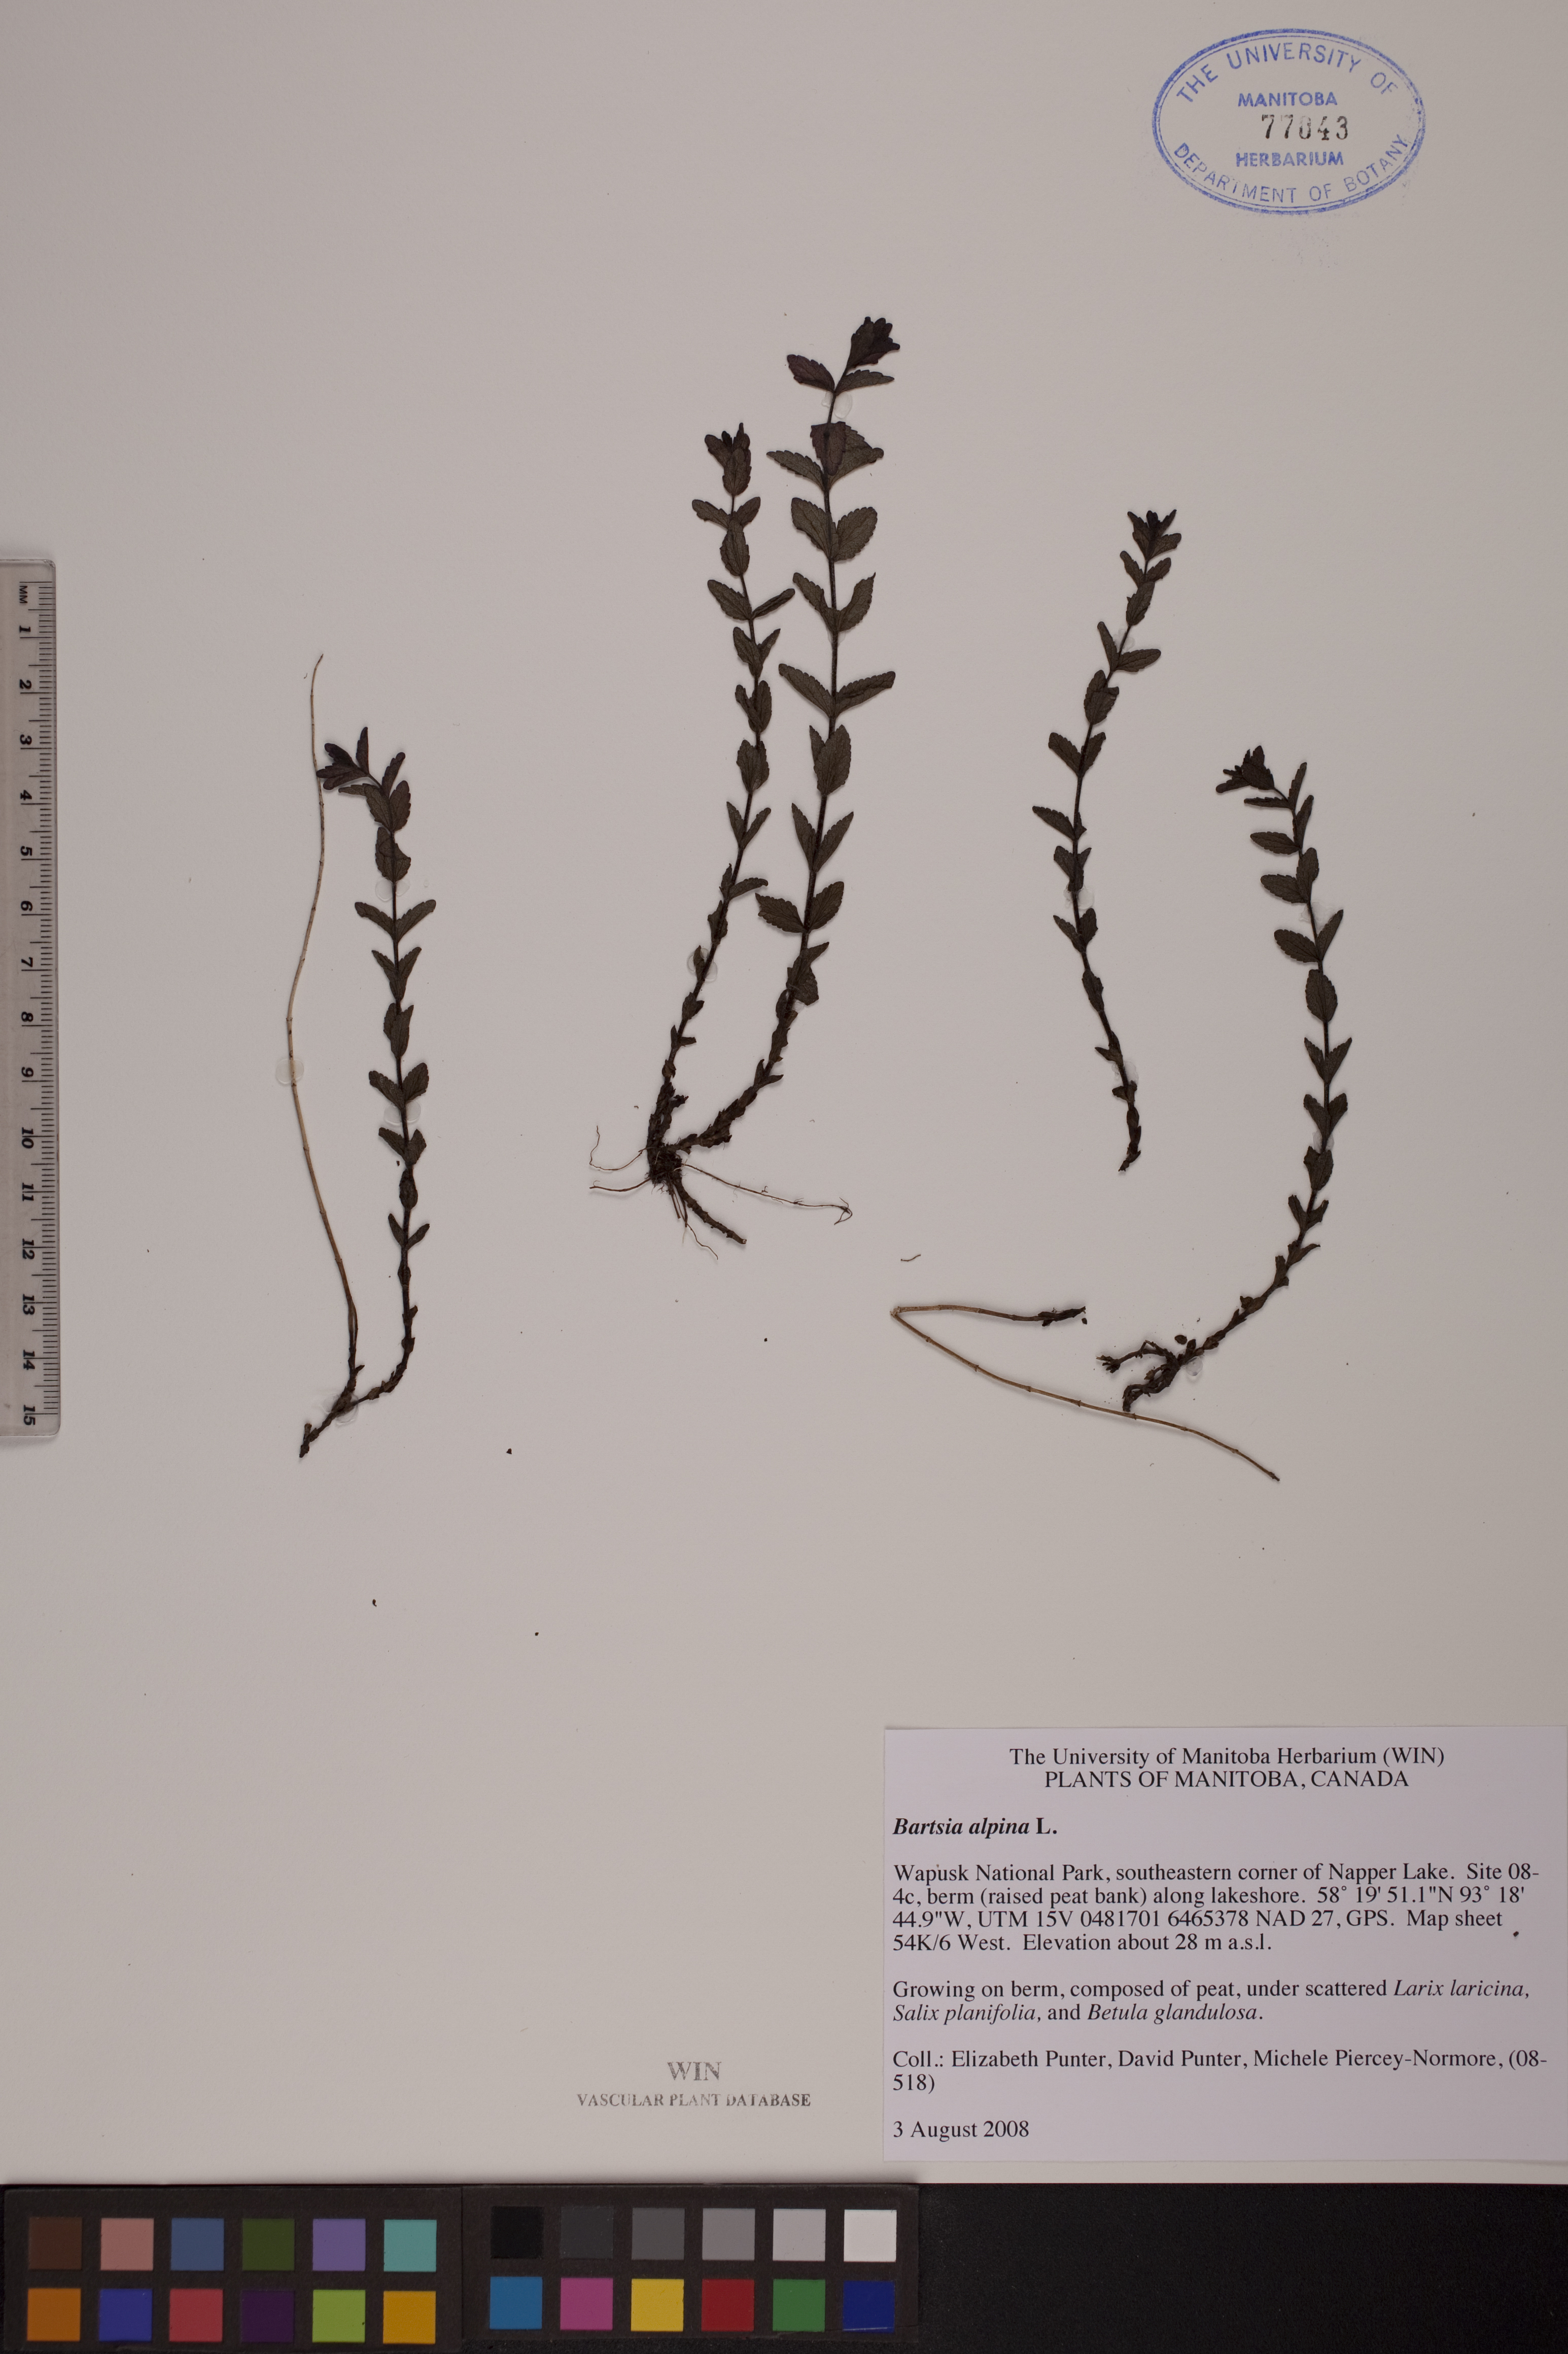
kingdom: Plantae
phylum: Tracheophyta
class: Magnoliopsida
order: Lamiales
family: Orobanchaceae
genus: Bartsia
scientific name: Bartsia alpina
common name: Alpine bartsia
